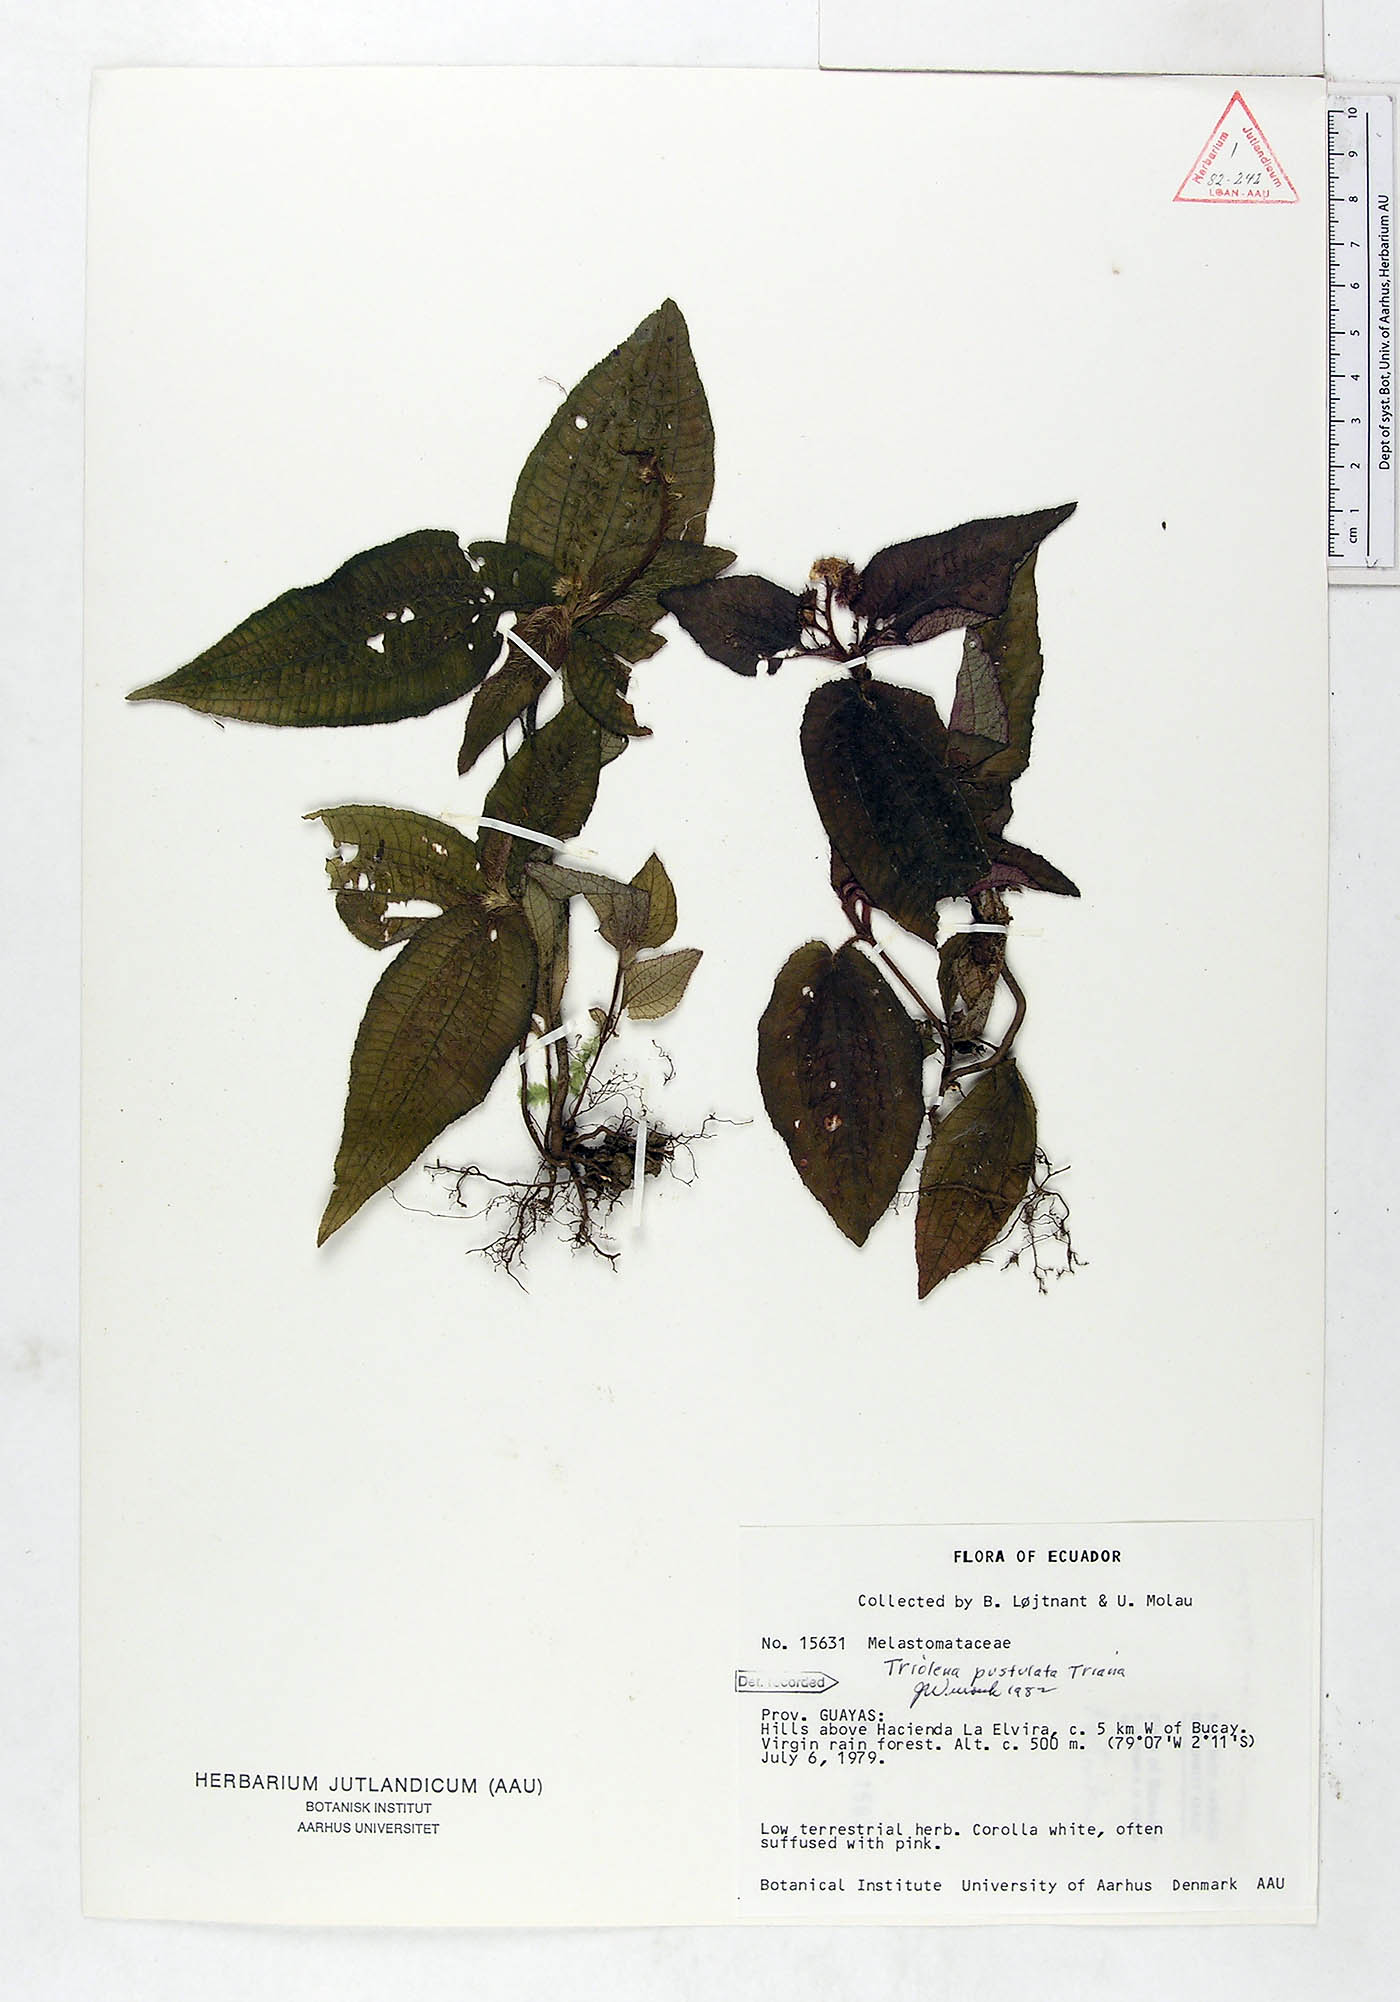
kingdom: Plantae
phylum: Tracheophyta
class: Magnoliopsida
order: Myrtales
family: Melastomataceae
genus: Triolena
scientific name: Triolena pustulata
